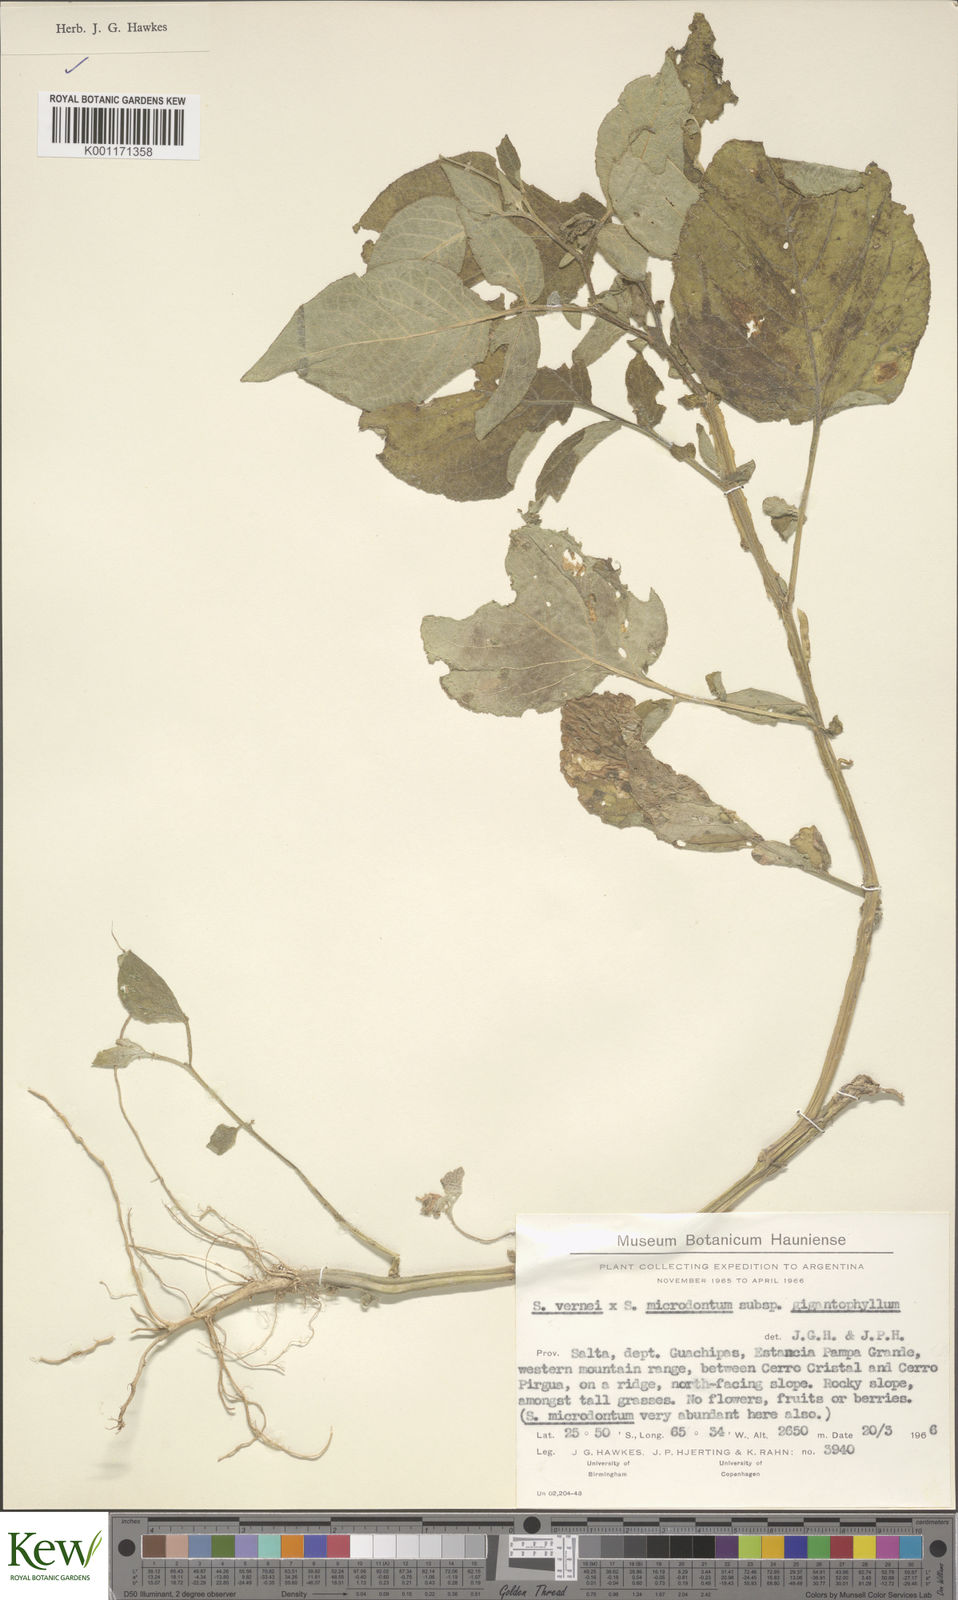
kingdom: Plantae
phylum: Tracheophyta
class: Magnoliopsida
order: Solanales
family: Solanaceae
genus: Solanum
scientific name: Solanum microdontum
